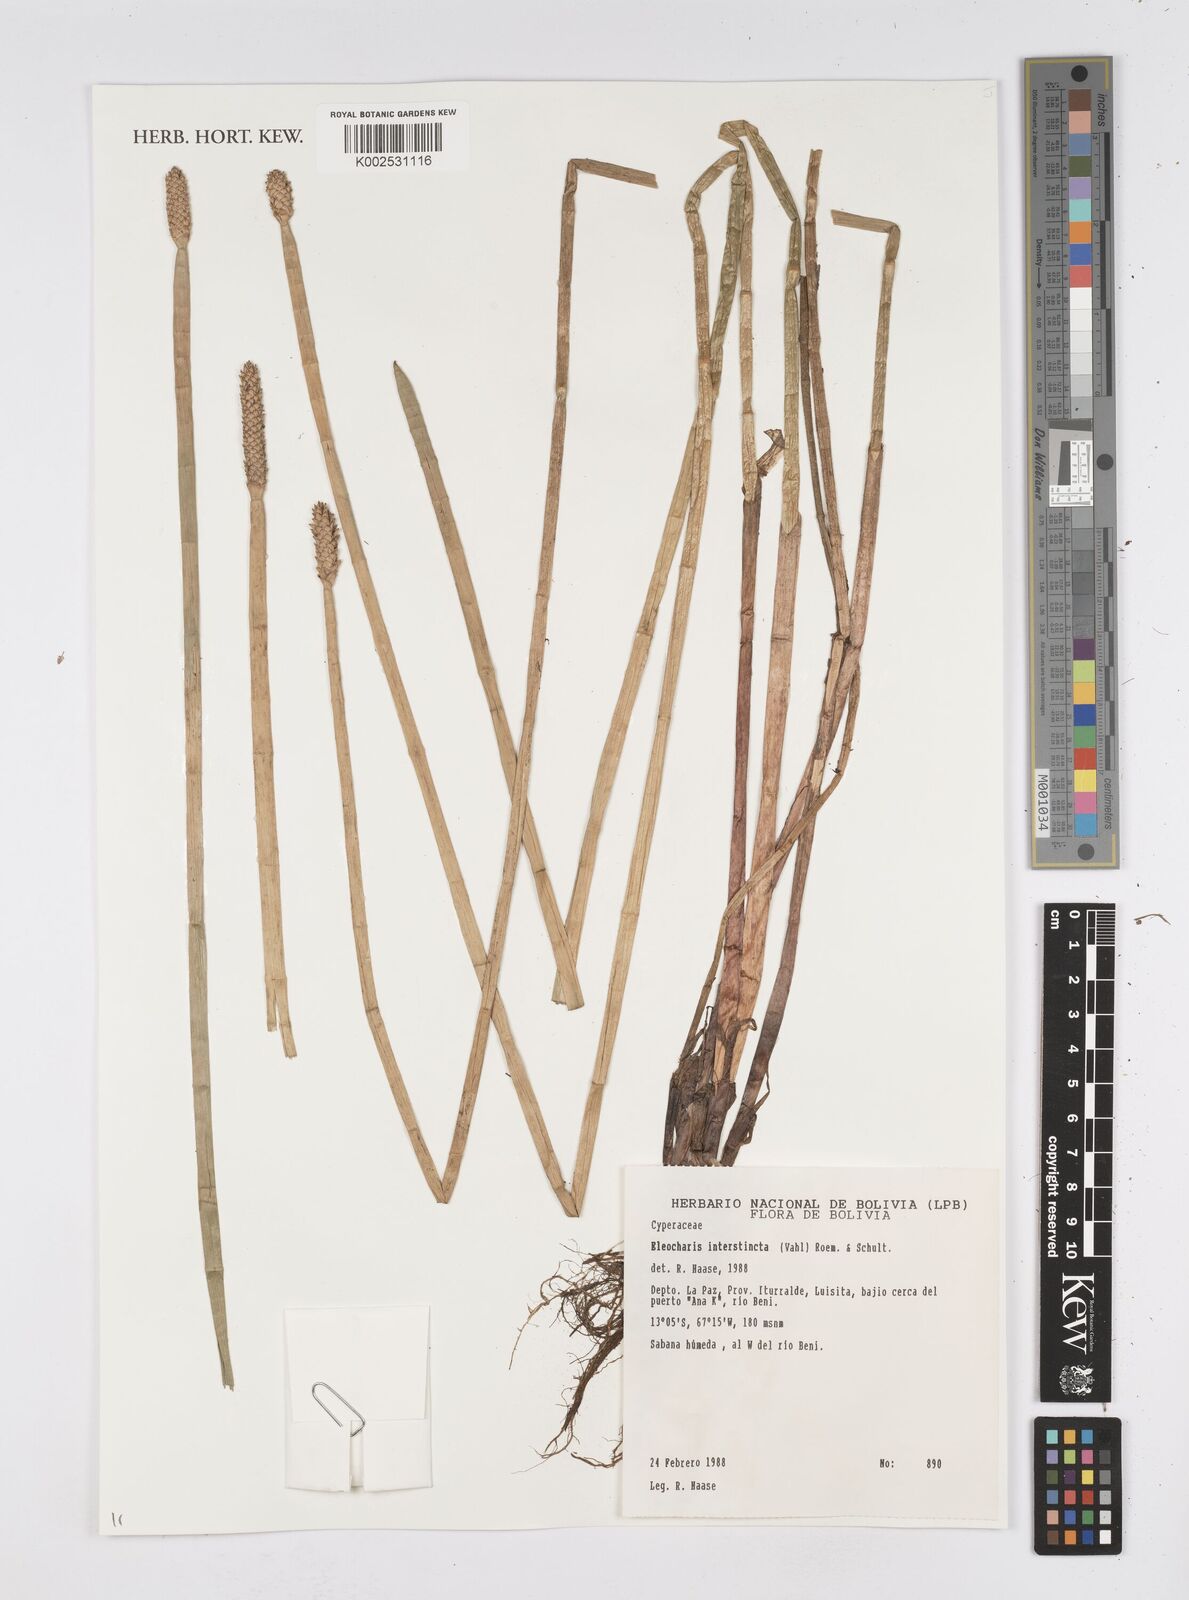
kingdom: Plantae
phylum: Tracheophyta
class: Liliopsida
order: Poales
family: Cyperaceae
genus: Eleocharis
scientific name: Eleocharis interstincta
